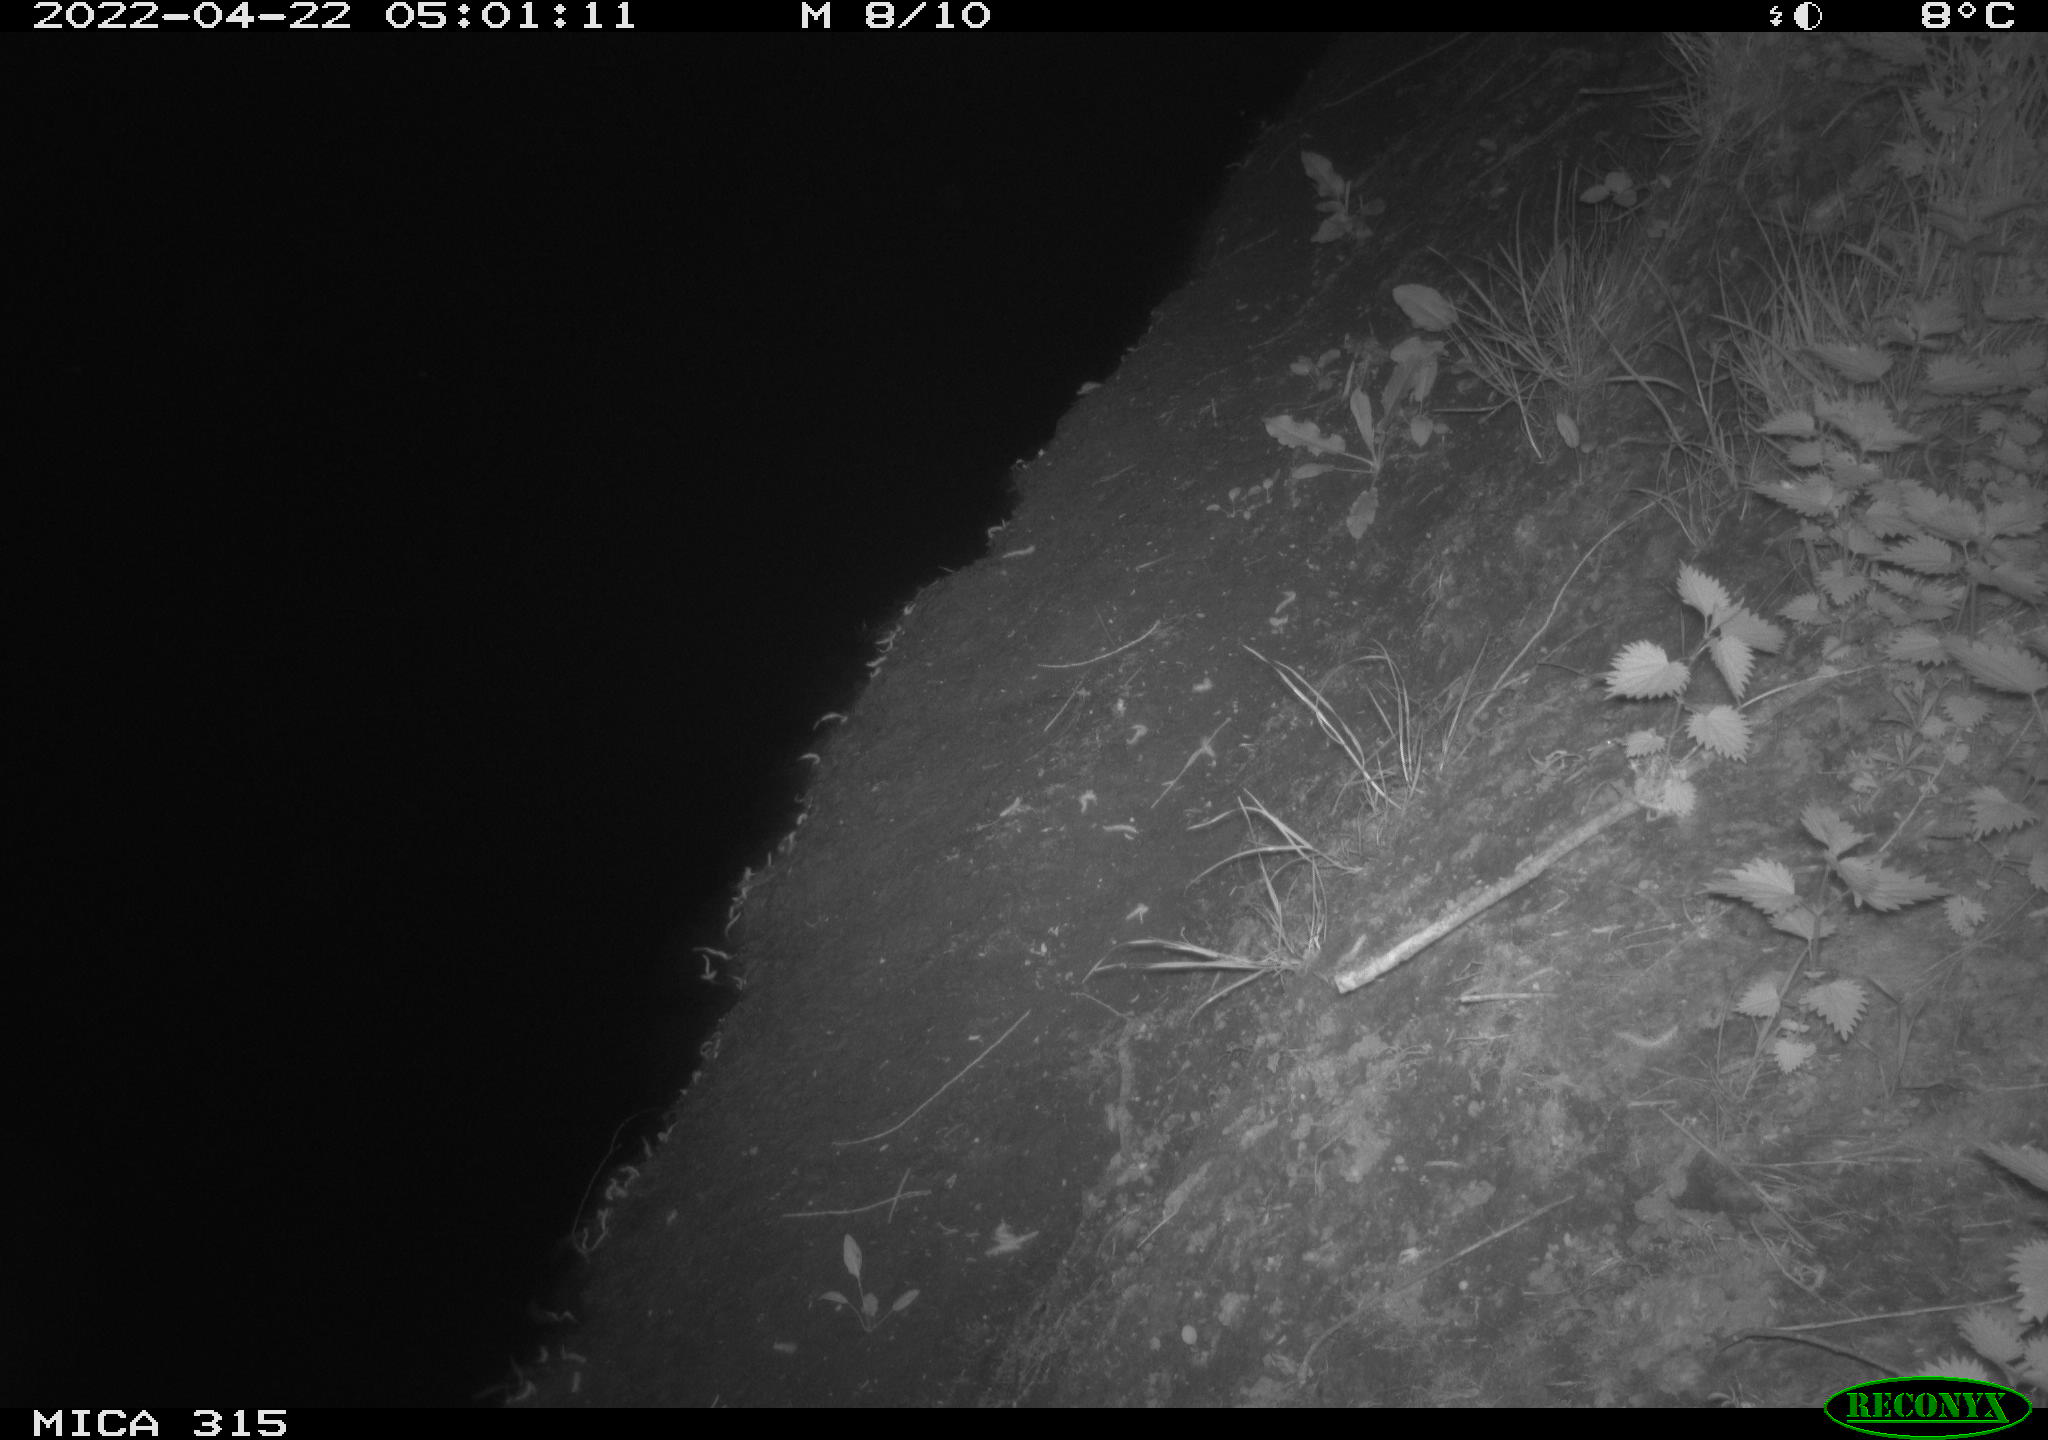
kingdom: Animalia
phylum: Chordata
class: Mammalia
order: Carnivora
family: Canidae
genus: Vulpes
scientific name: Vulpes vulpes
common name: Red fox
